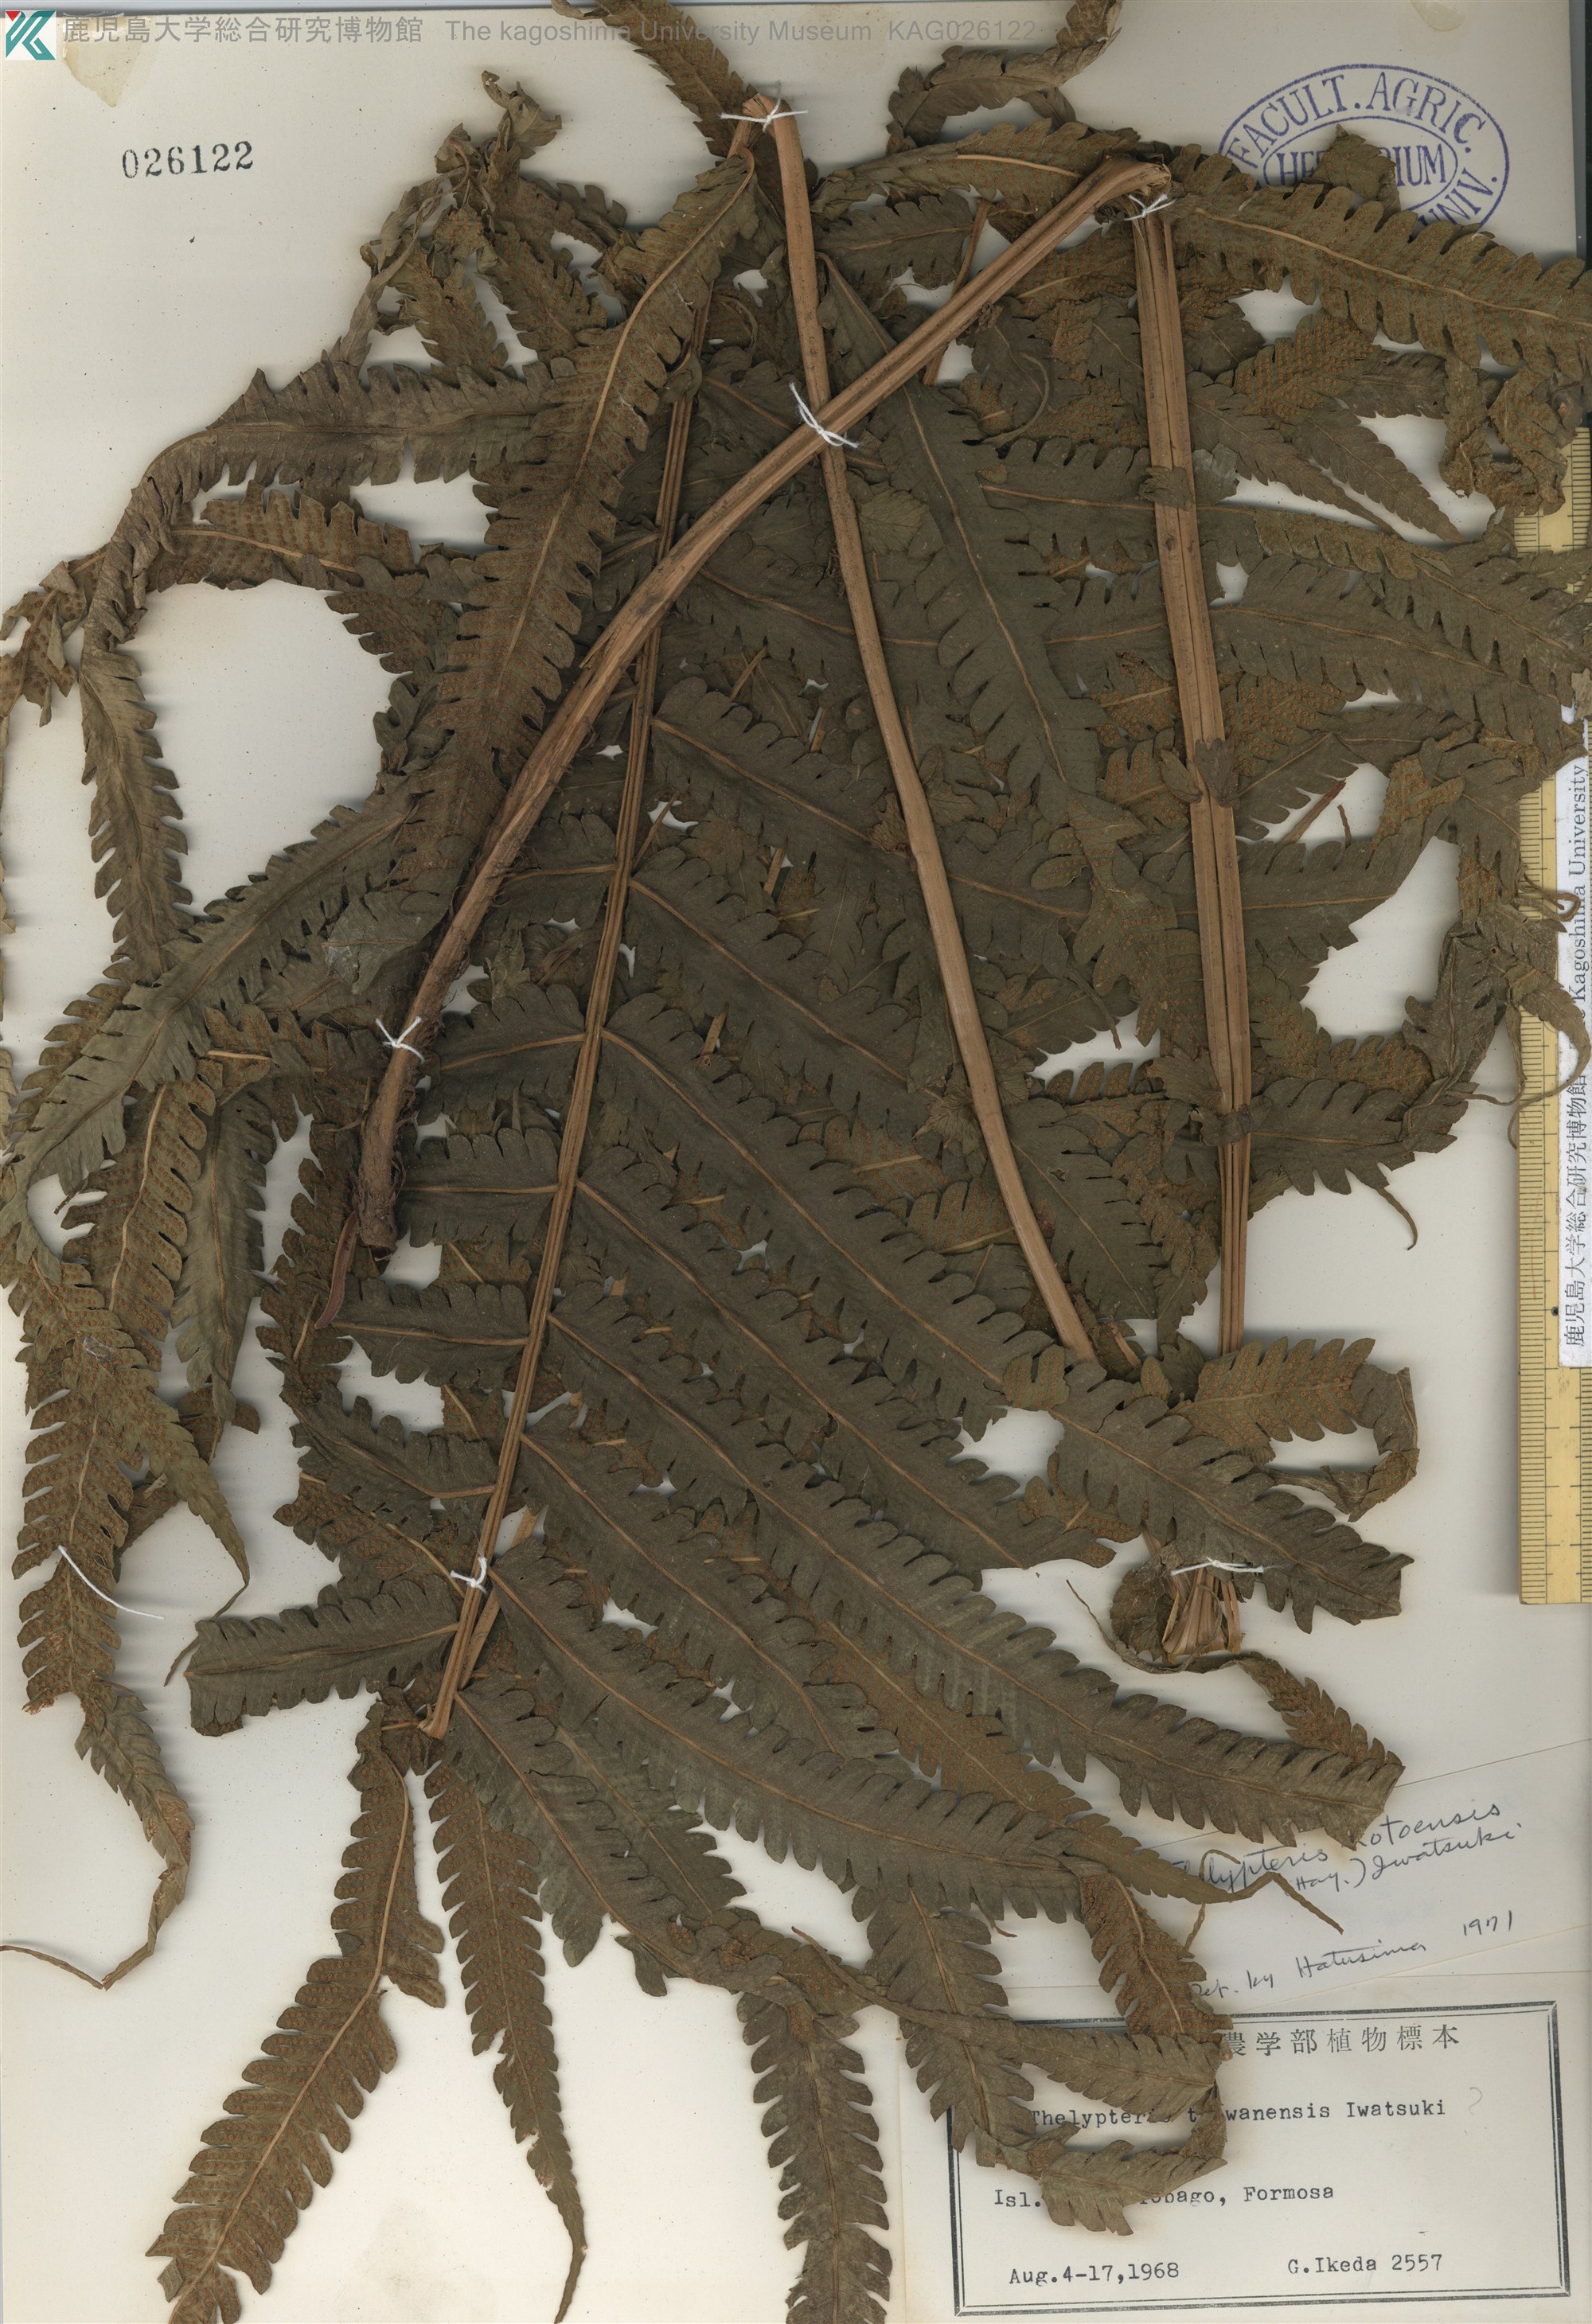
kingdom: Plantae
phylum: Tracheophyta
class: Polypodiopsida
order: Polypodiales
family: Thelypteridaceae
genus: Sphaerostephanos
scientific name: Sphaerostephanos productus
